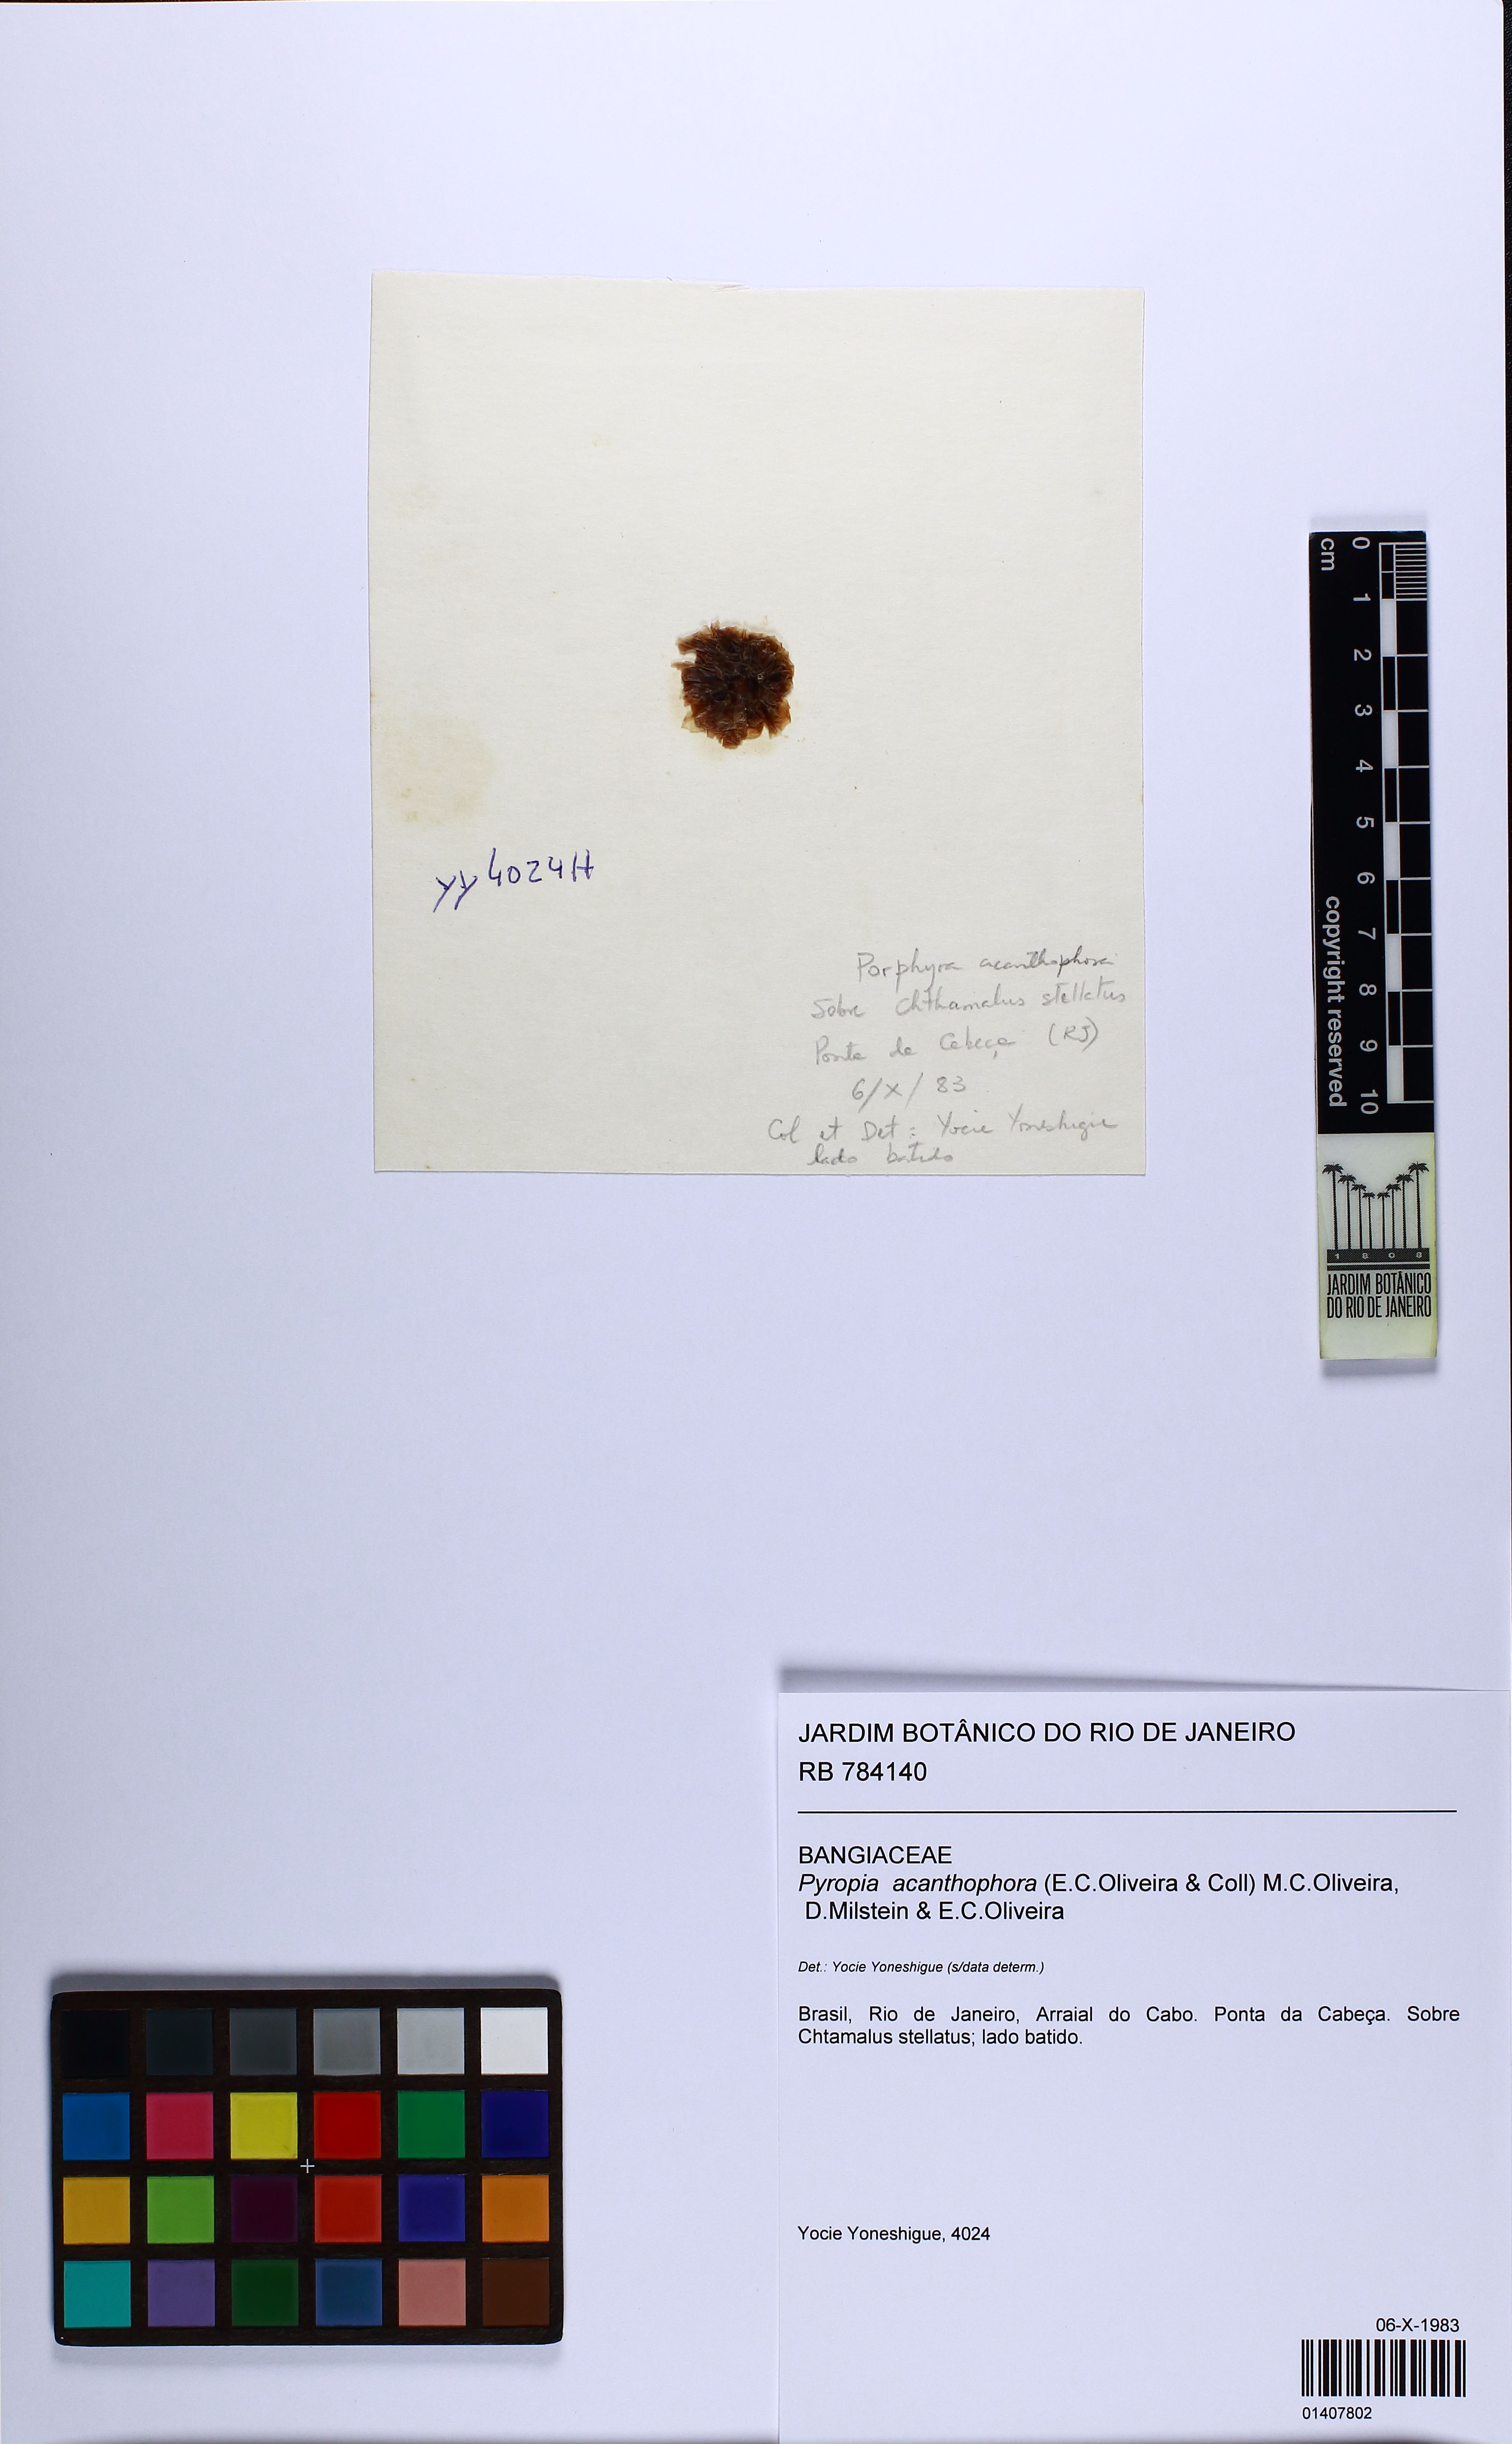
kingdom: Plantae
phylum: Rhodophyta
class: Bangiophyceae
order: Bangiales
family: Bangiaceae
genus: Pyropia
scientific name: Pyropia acanthophora
